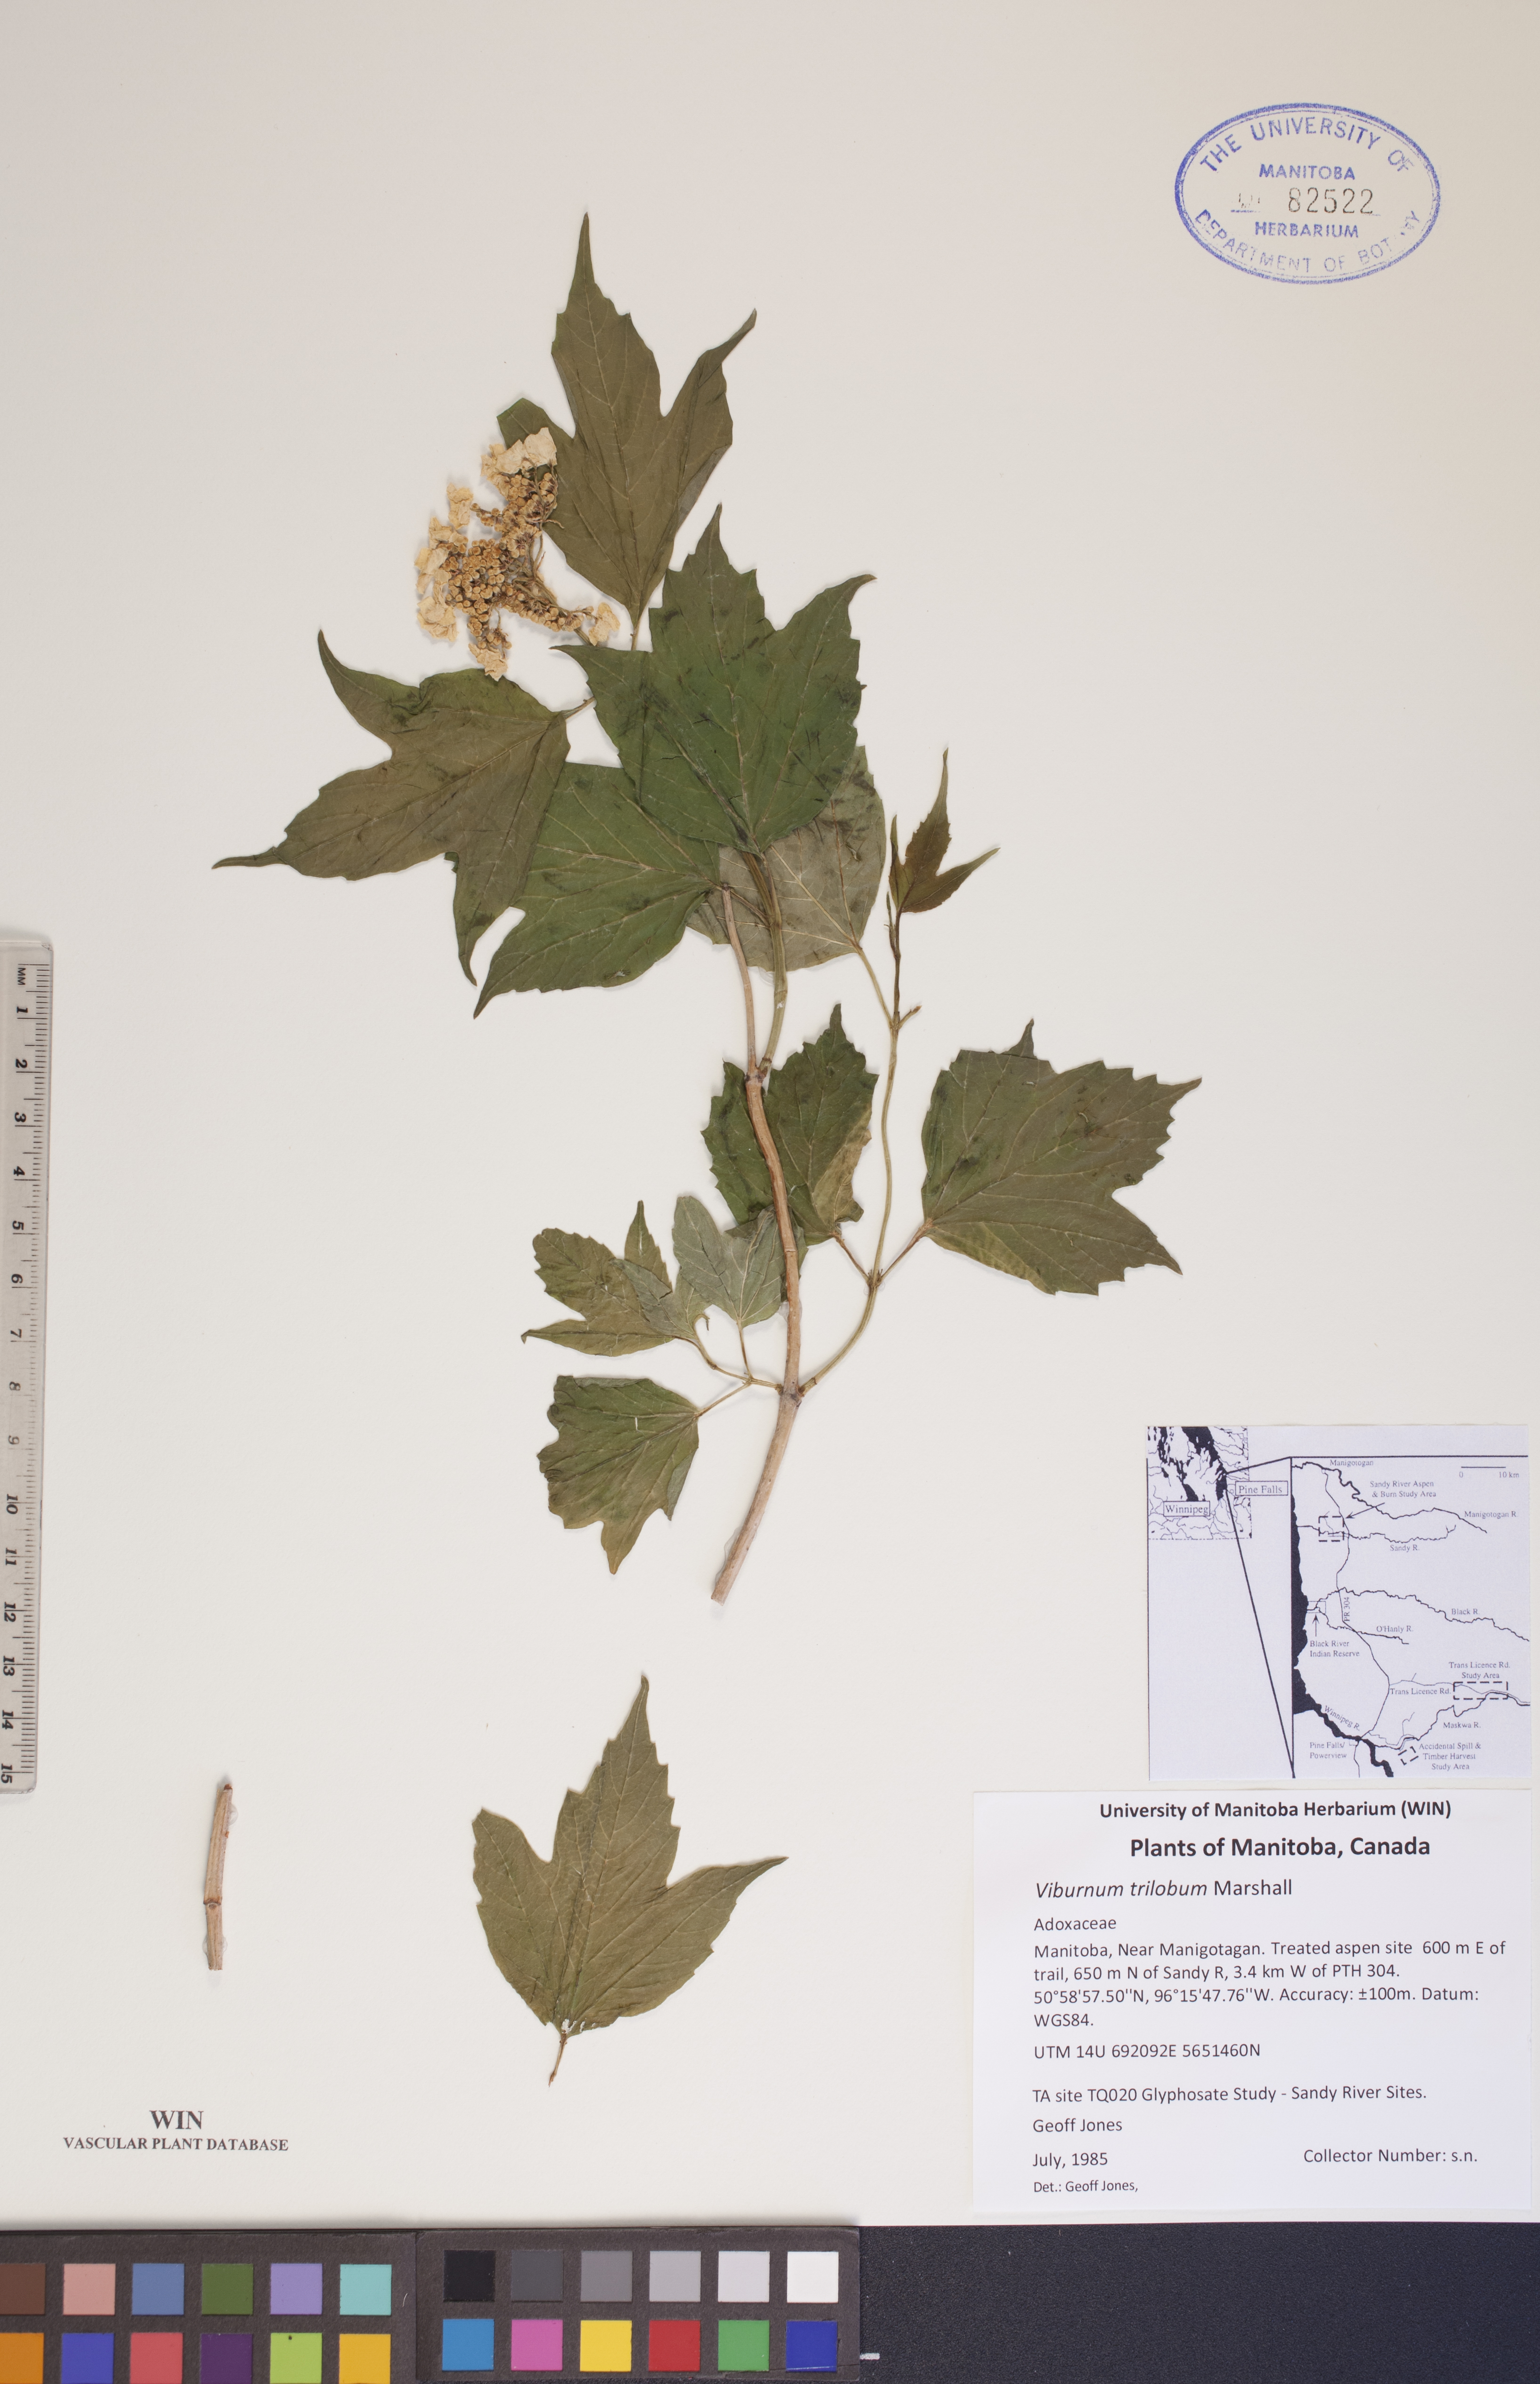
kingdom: Plantae
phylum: Tracheophyta
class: Magnoliopsida
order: Dipsacales
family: Viburnaceae
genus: Viburnum
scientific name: Viburnum trilobum
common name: American cranberrybush
